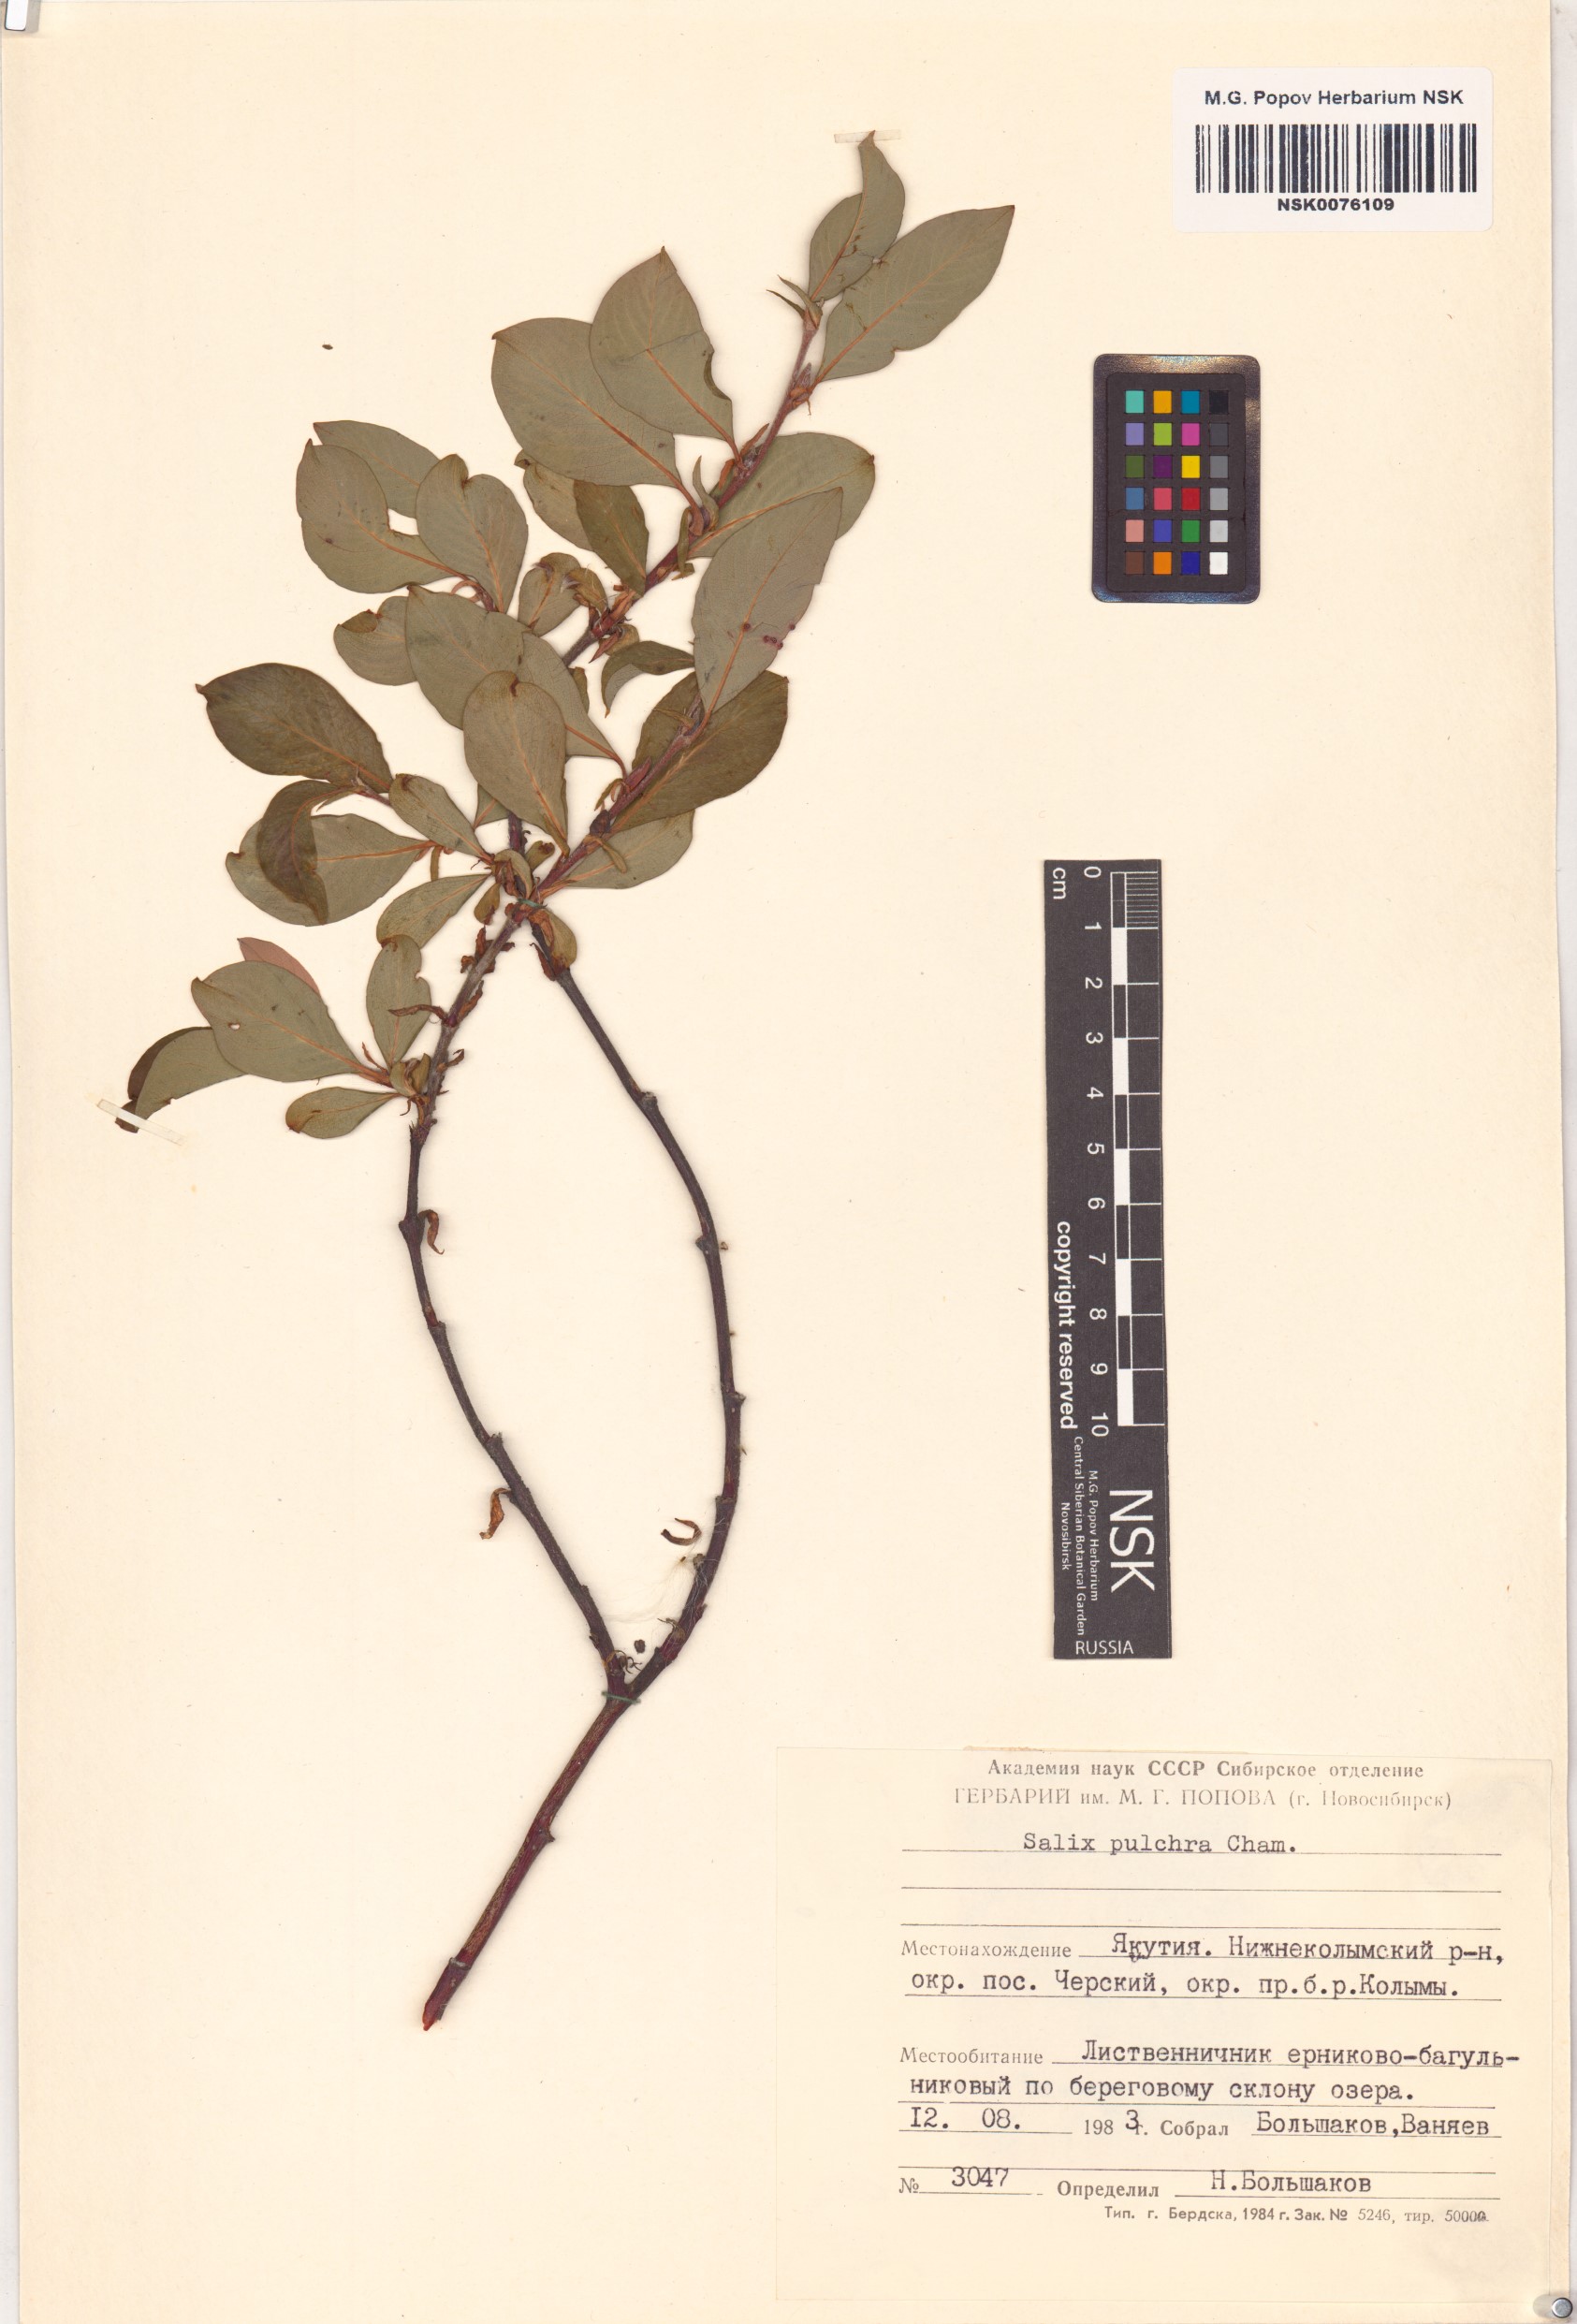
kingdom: Plantae
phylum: Tracheophyta
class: Magnoliopsida
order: Malpighiales
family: Salicaceae
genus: Salix
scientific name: Salix pulchra
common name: Diamond-leaved willow
